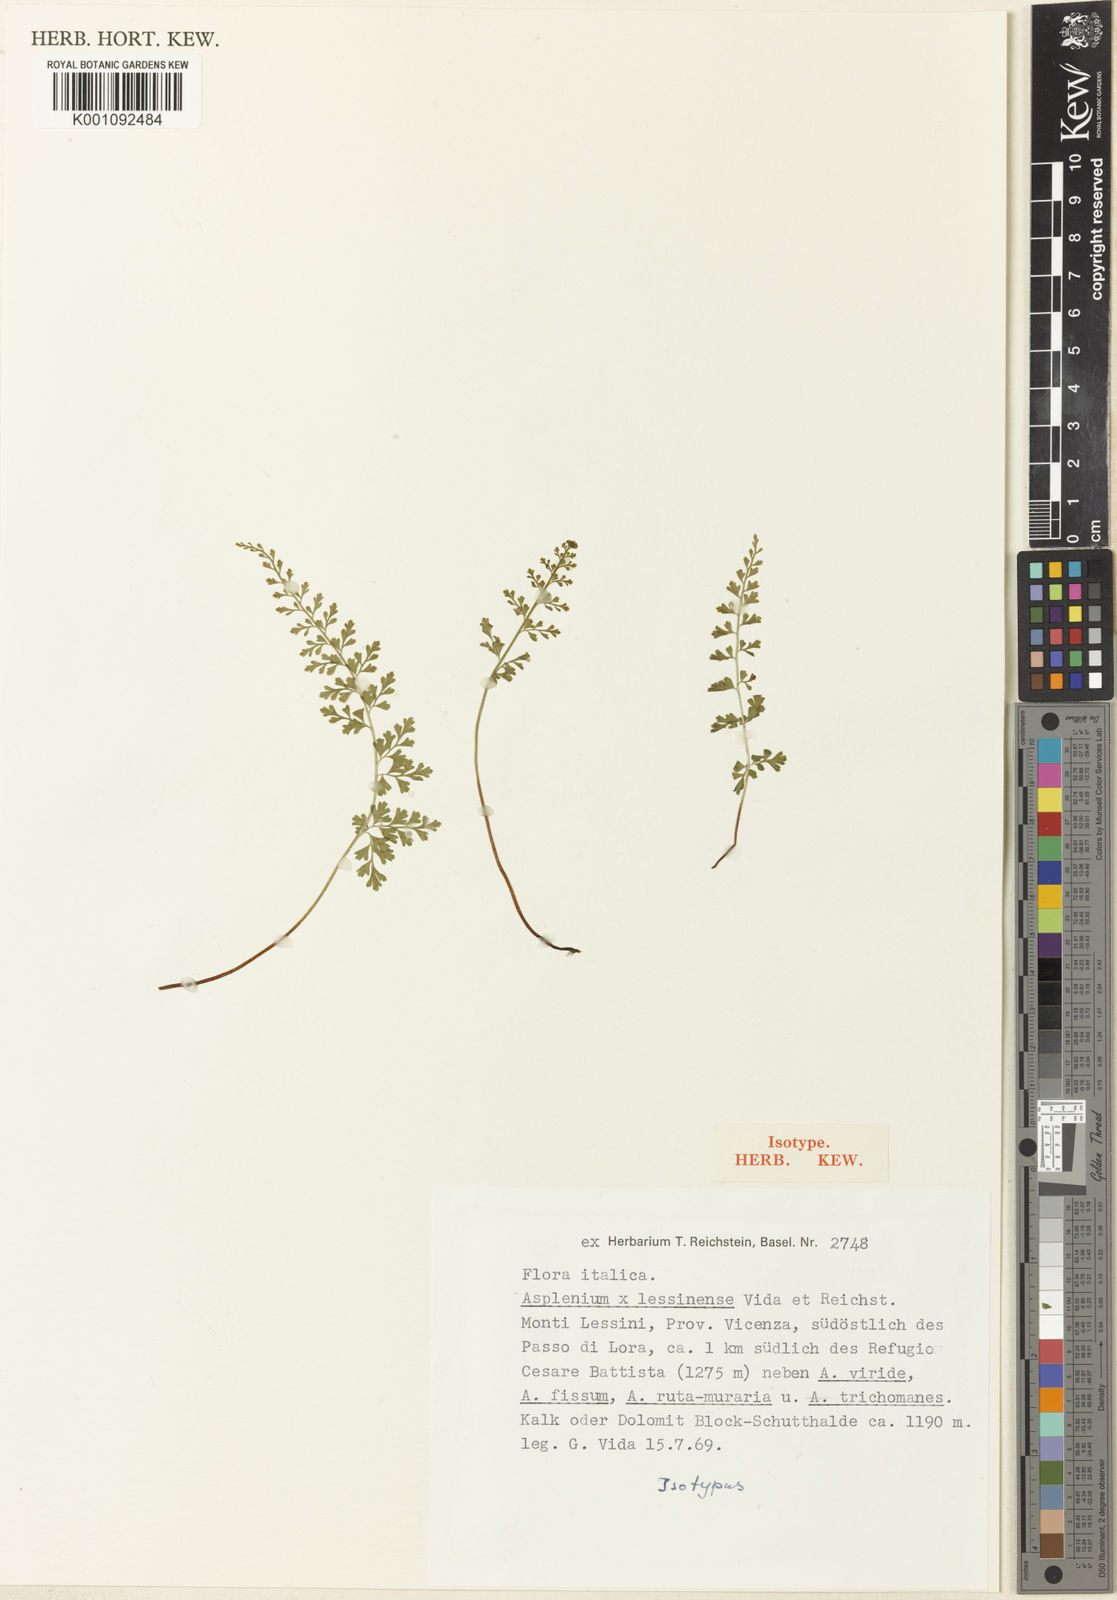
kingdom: Plantae
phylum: Tracheophyta
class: Polypodiopsida
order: Polypodiales
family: Aspleniaceae
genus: Asplenium
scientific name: Asplenium lessinense
